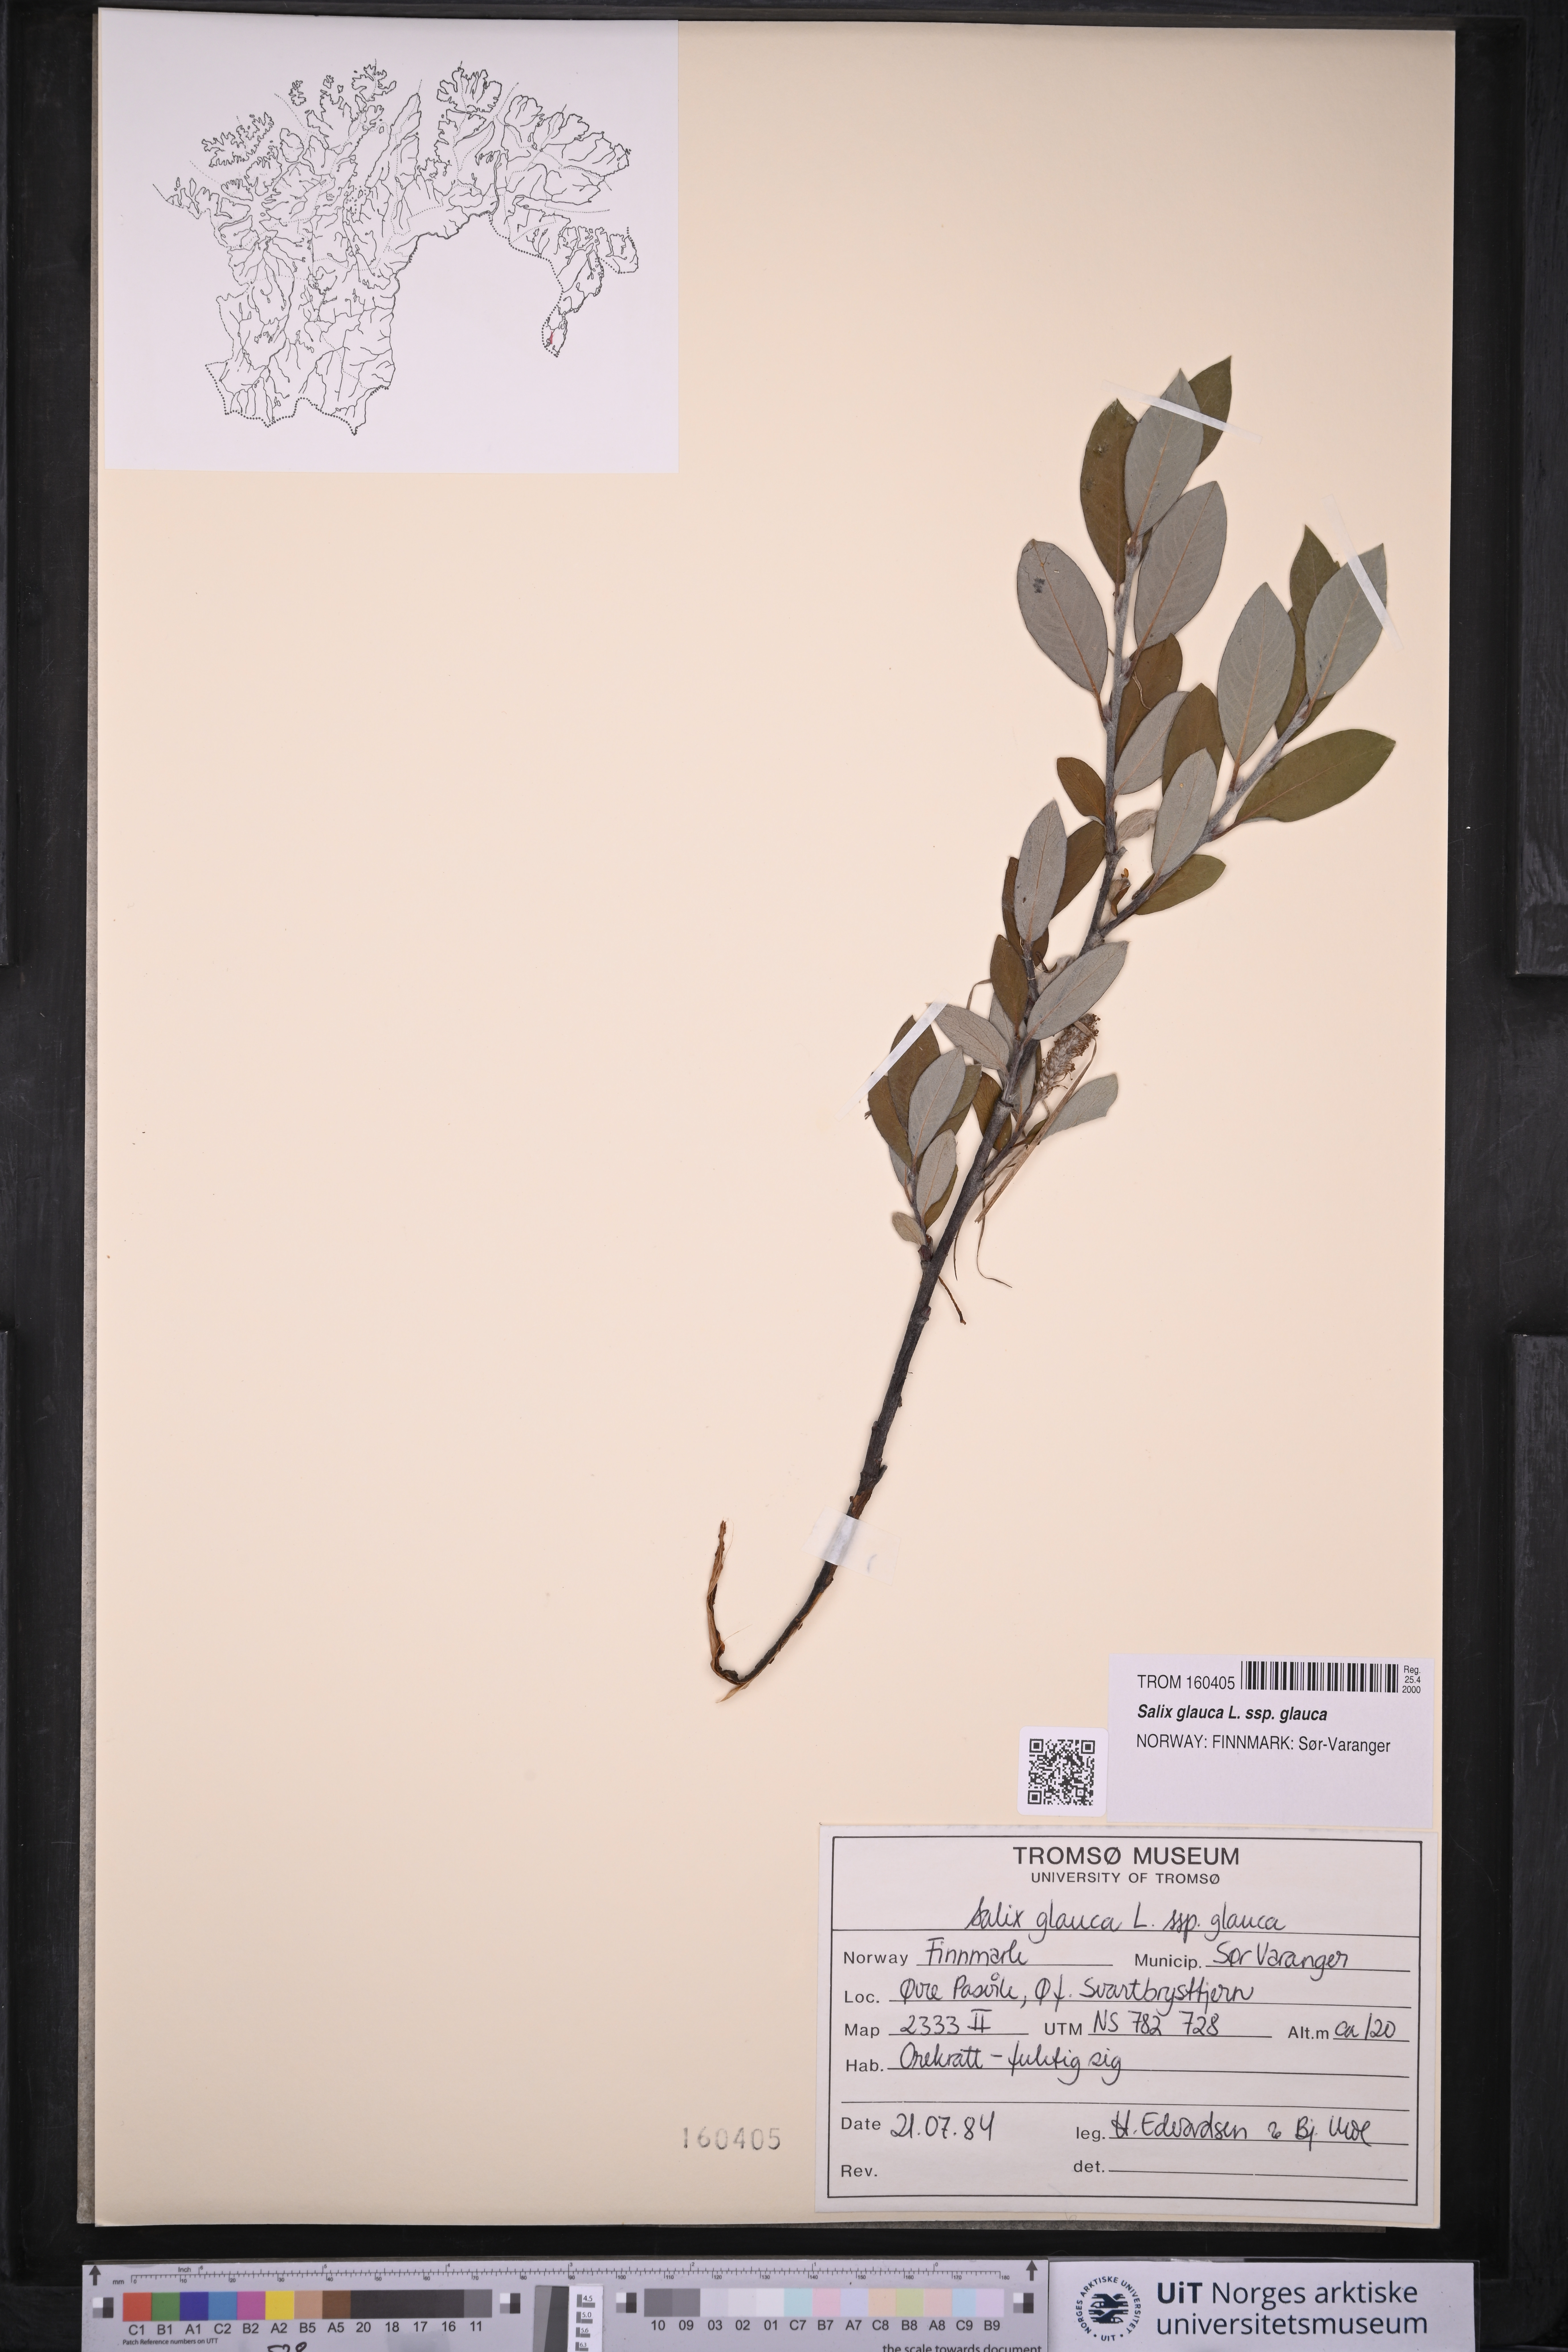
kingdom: Plantae
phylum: Tracheophyta
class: Magnoliopsida
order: Malpighiales
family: Salicaceae
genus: Salix
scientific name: Salix glauca
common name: Glaucous willow
